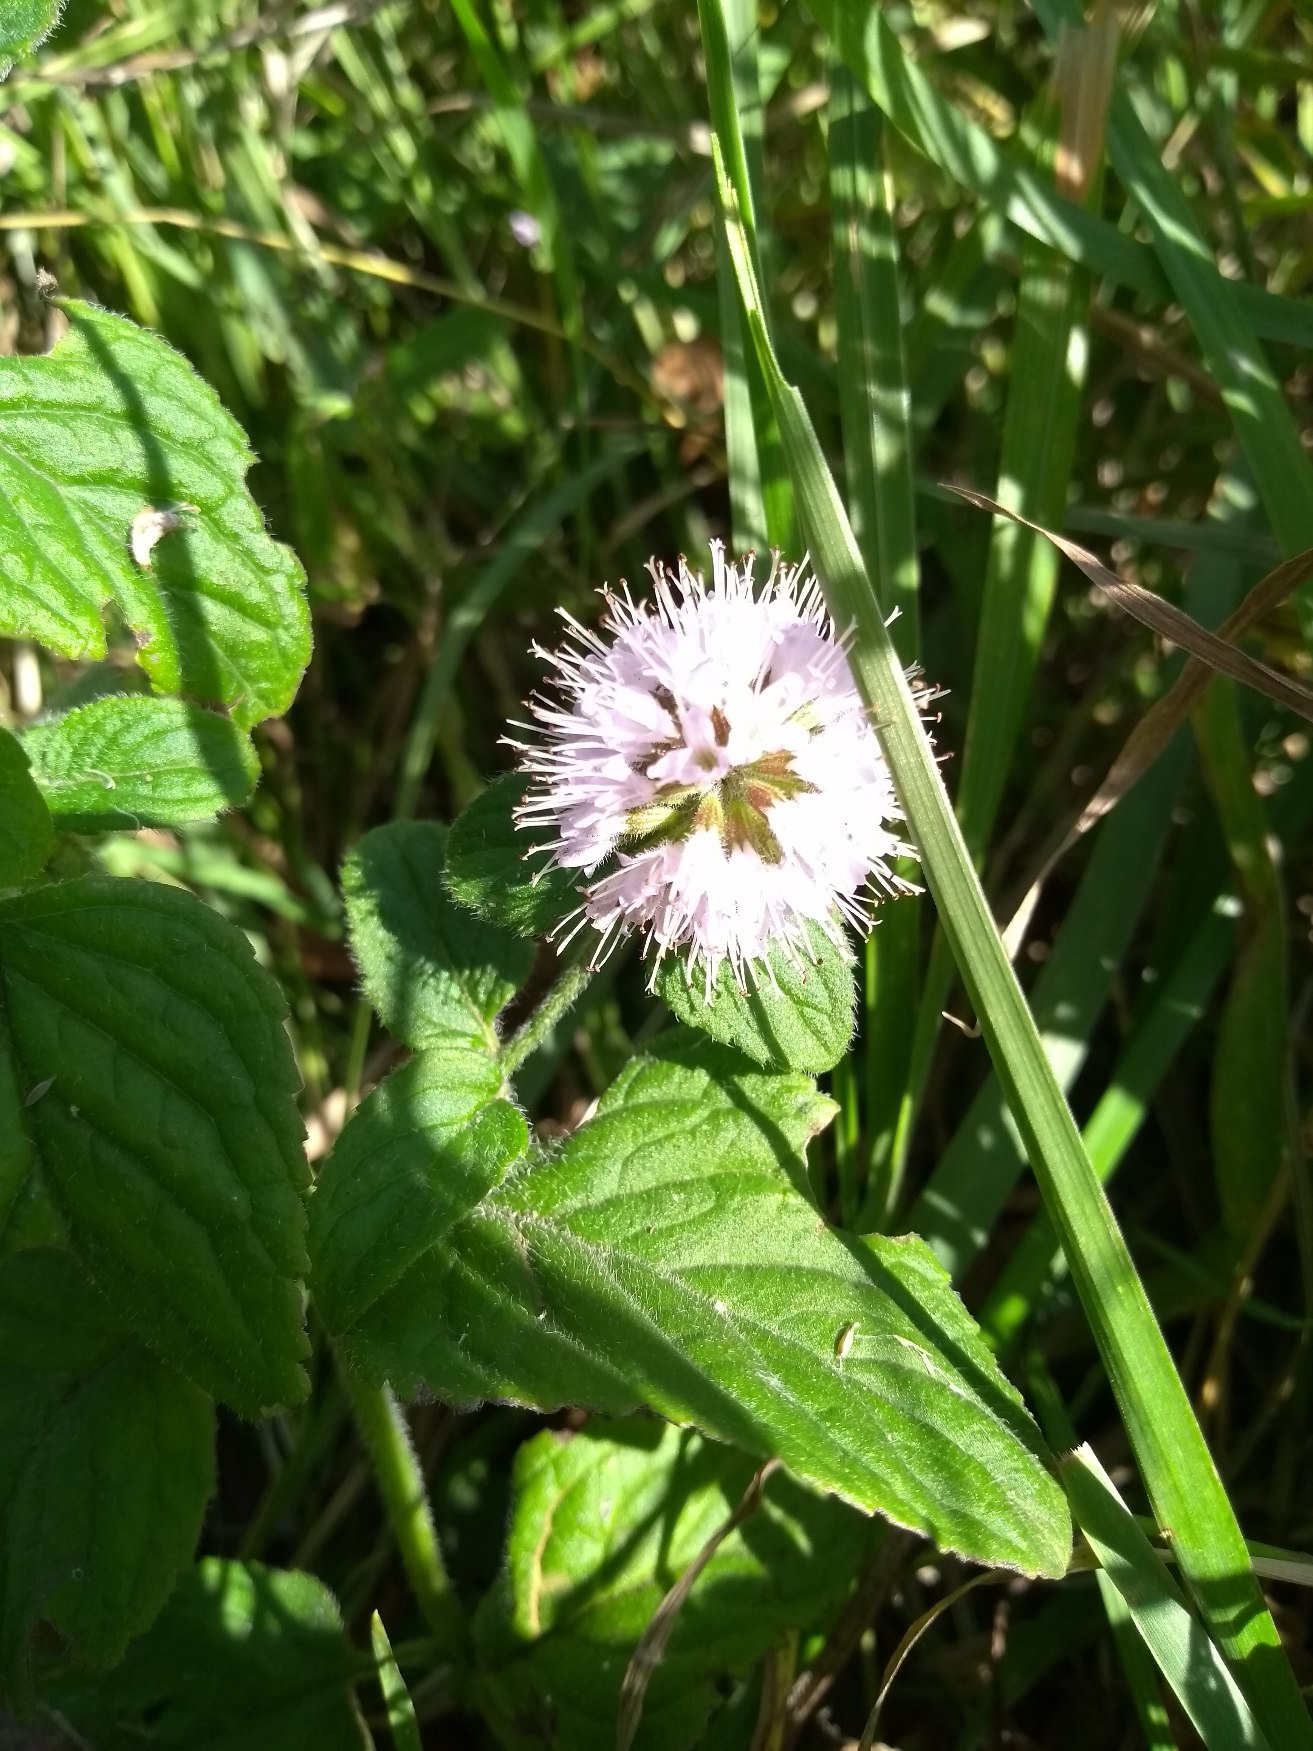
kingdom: Plantae
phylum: Tracheophyta
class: Magnoliopsida
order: Lamiales
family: Lamiaceae
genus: Mentha
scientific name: Mentha aquatica
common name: Vand-mynte
